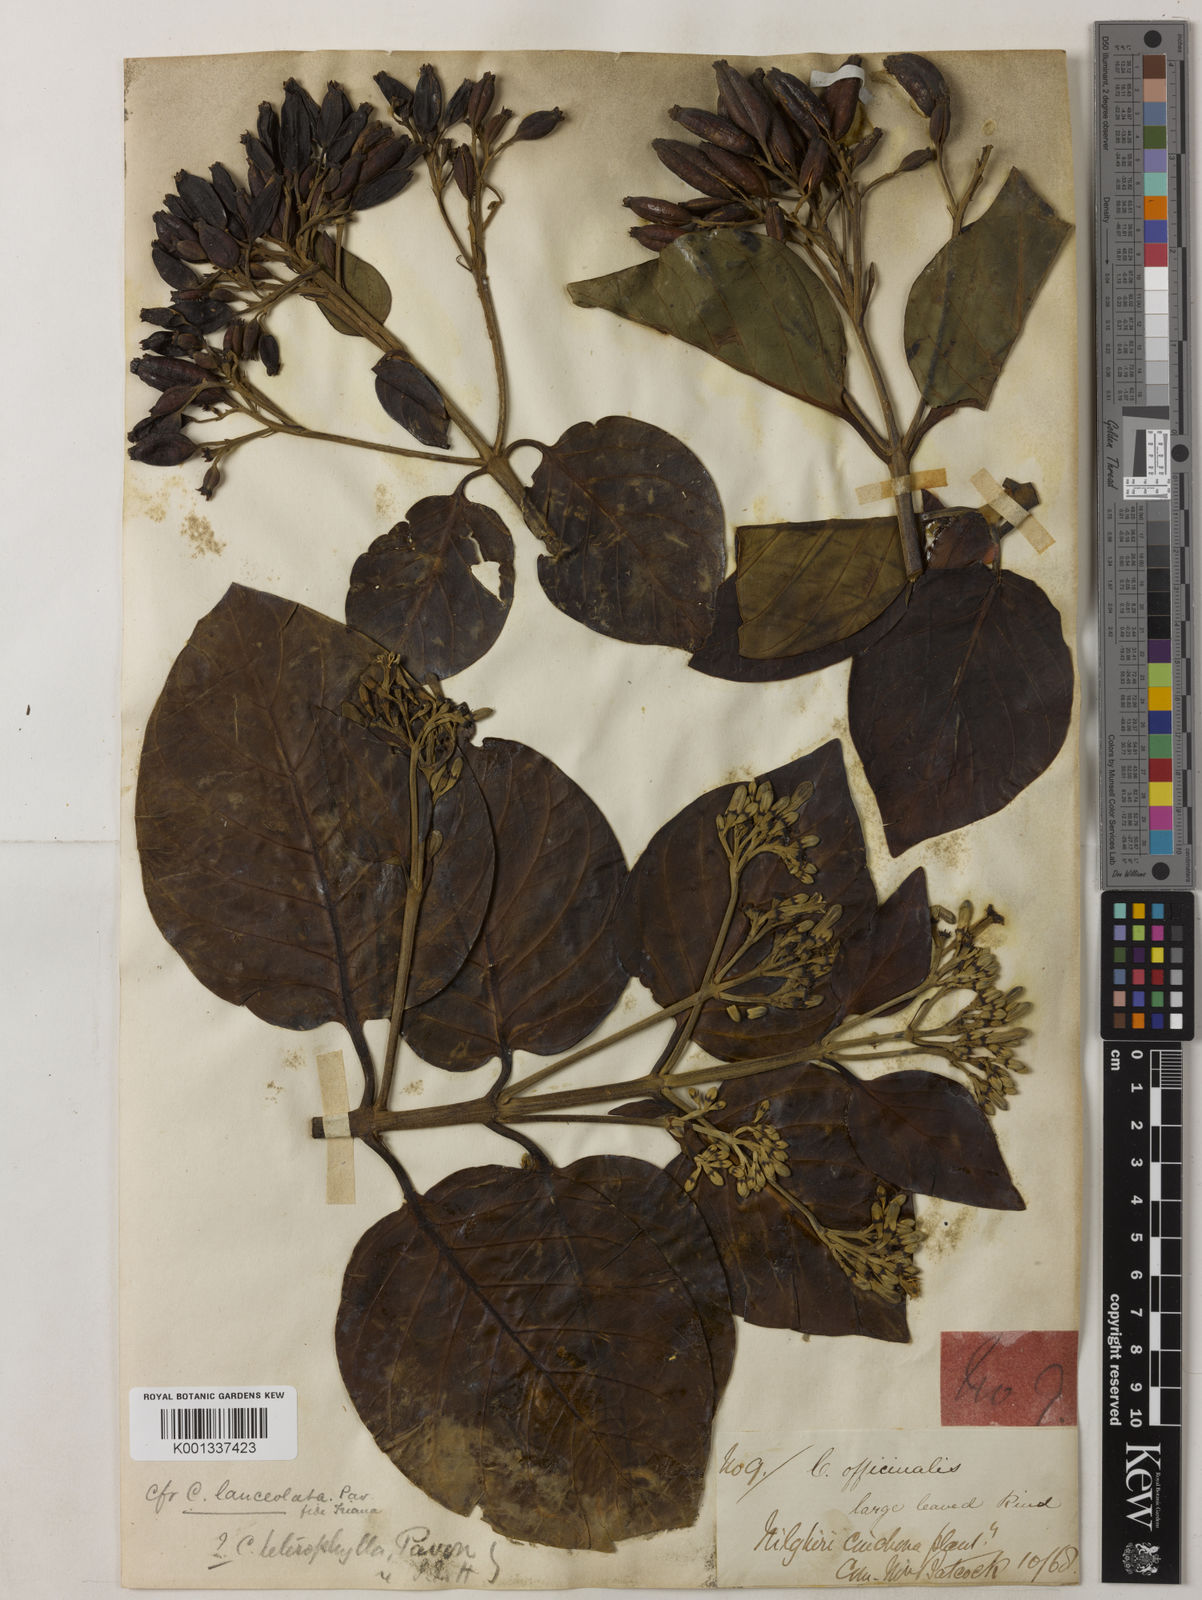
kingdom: Plantae
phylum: Tracheophyta
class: Magnoliopsida
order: Gentianales
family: Rubiaceae
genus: Cinchona
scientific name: Cinchona pubescens
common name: Quinine
